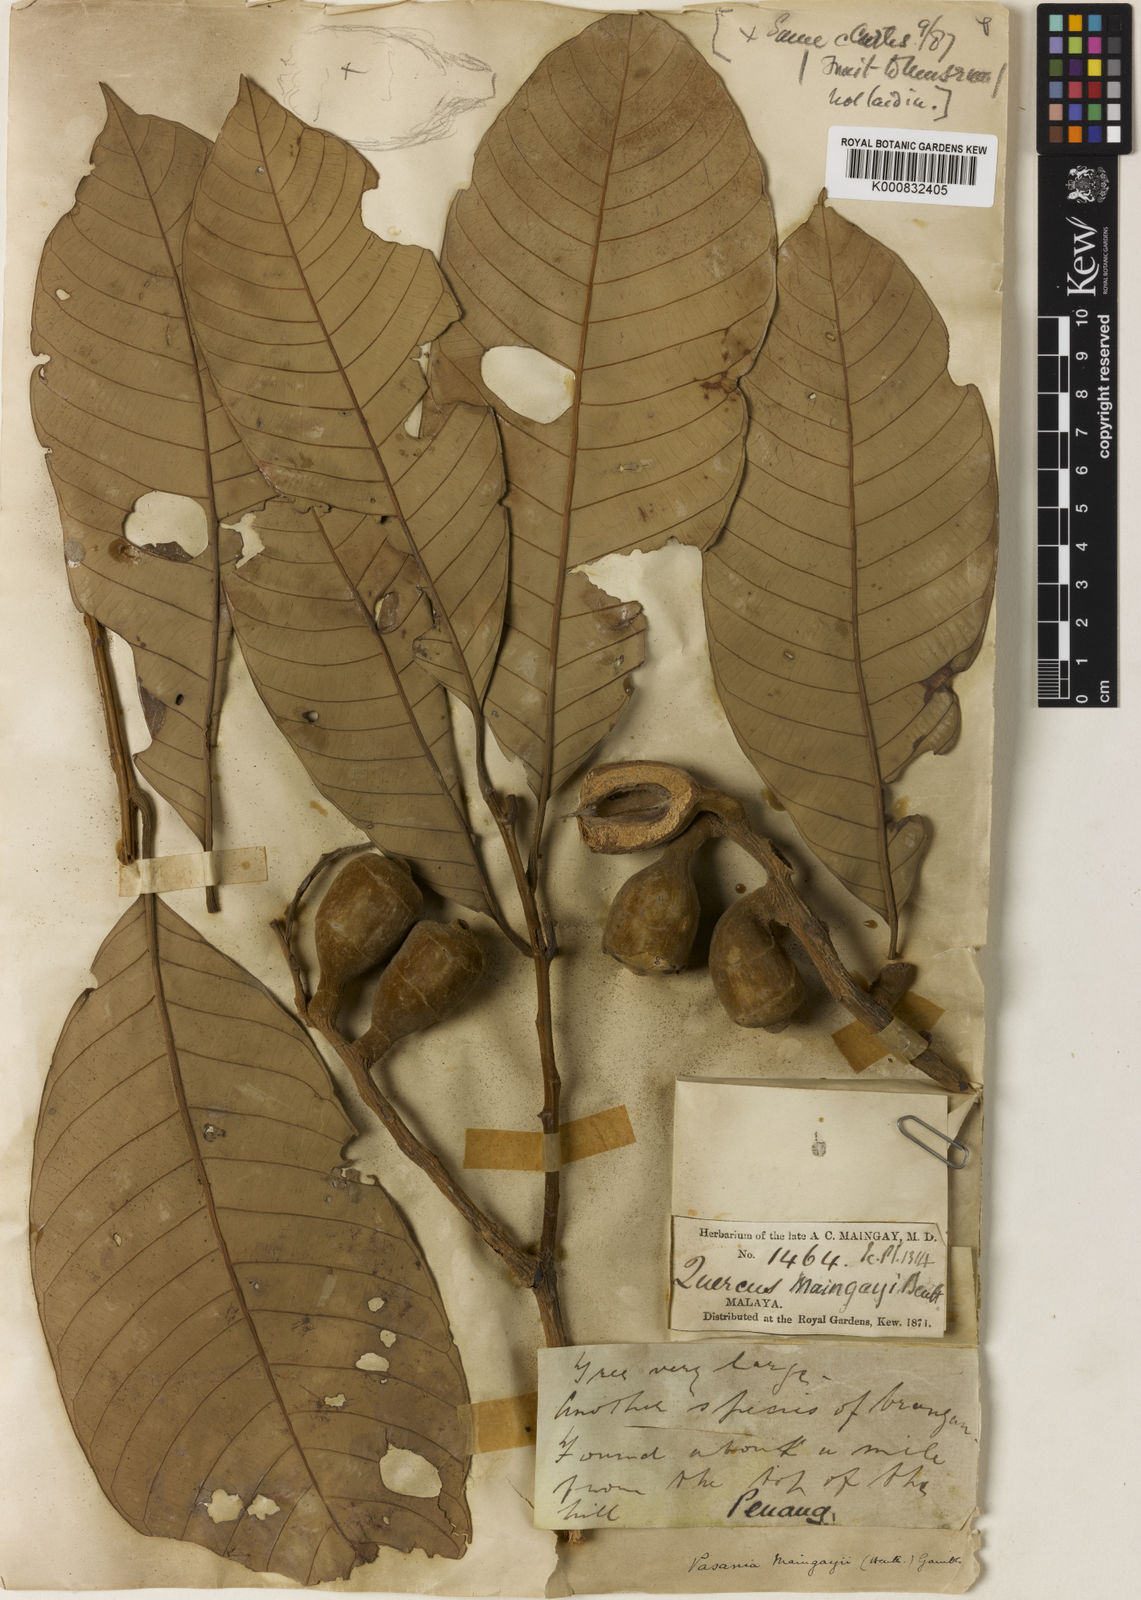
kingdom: Plantae
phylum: Tracheophyta
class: Magnoliopsida
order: Fagales
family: Fagaceae
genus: Lithocarpus
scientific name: Lithocarpus maingayi
